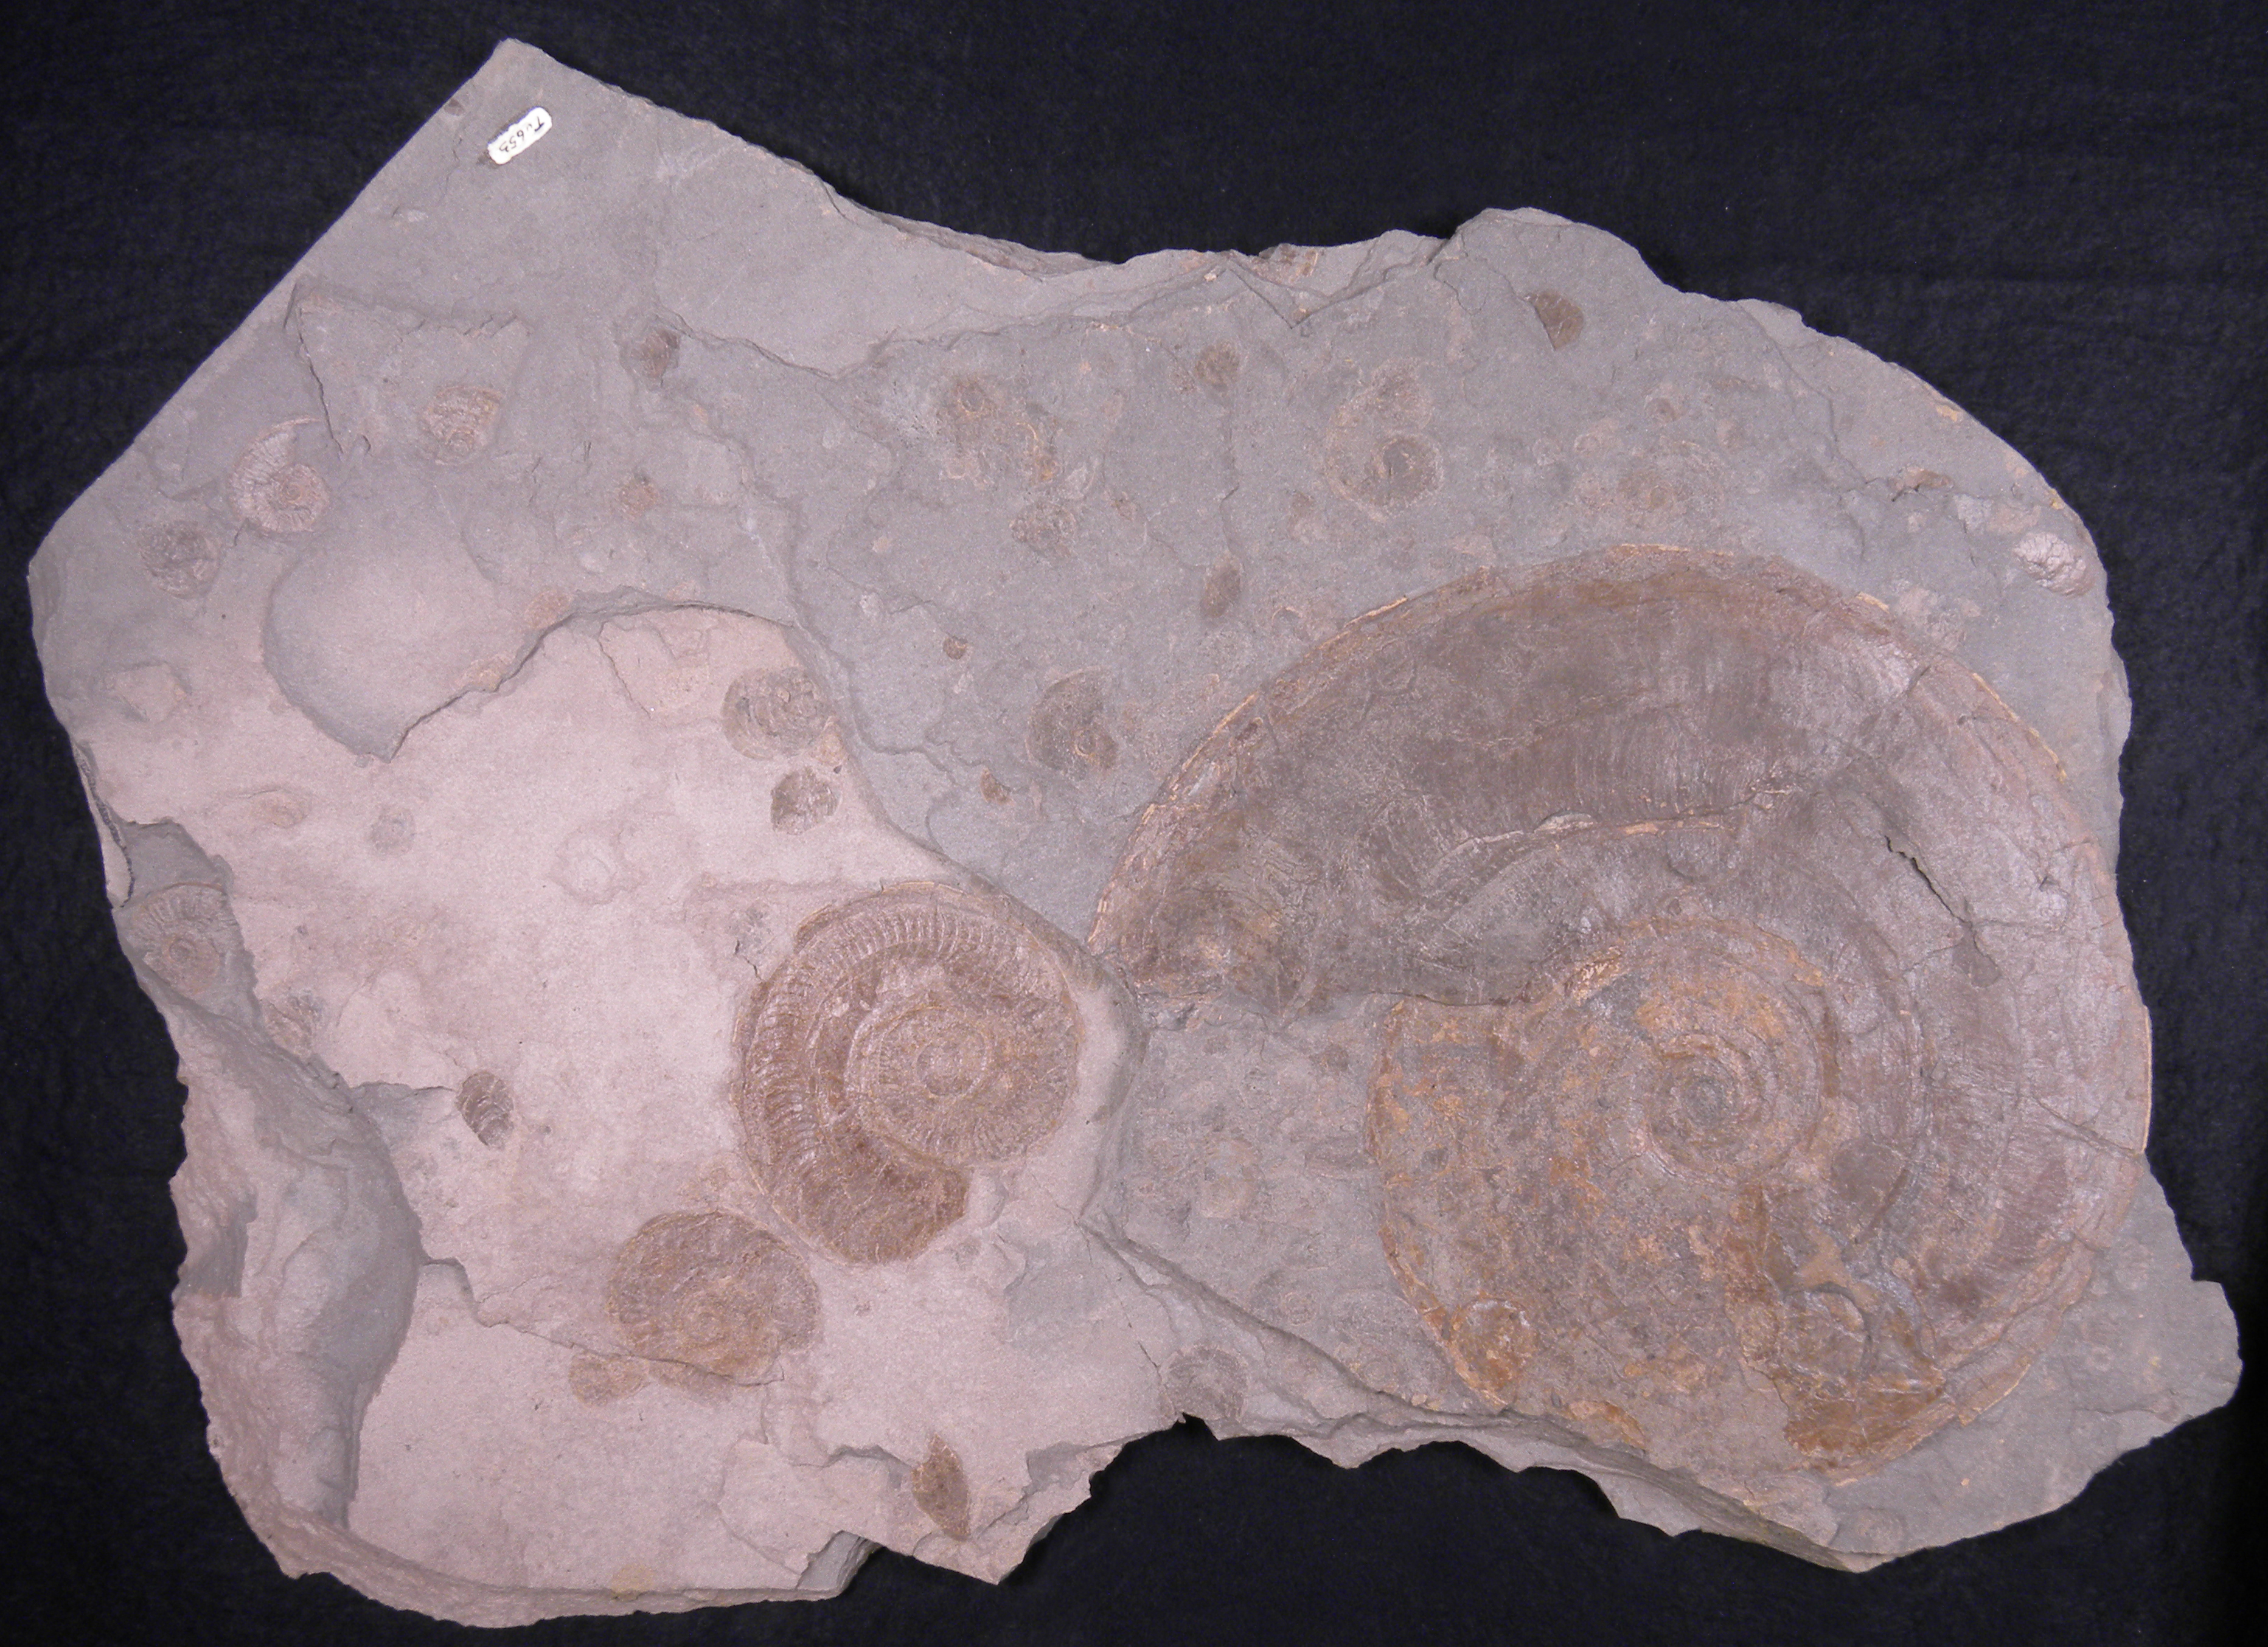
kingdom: Animalia
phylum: Mollusca
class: Cephalopoda
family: Hildoceratidae
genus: Eleganticeras
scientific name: Eleganticeras elegantulum
